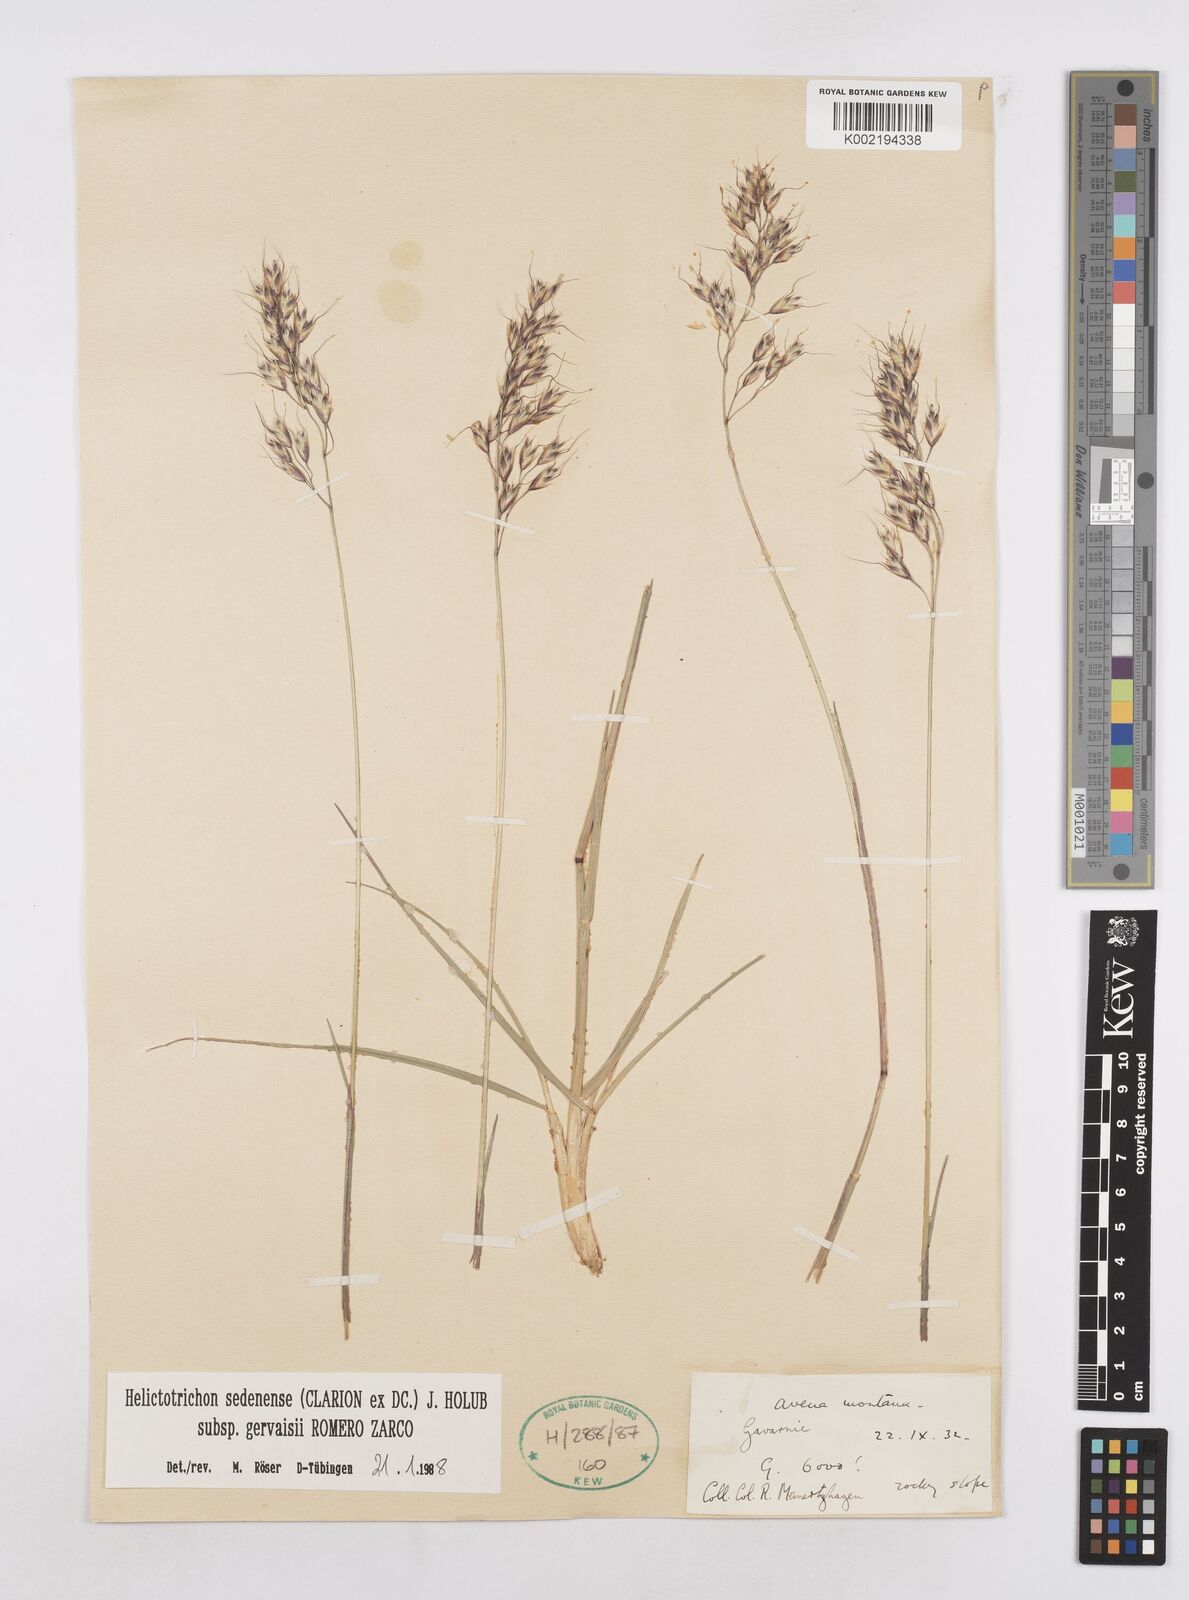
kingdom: Plantae
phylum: Tracheophyta
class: Liliopsida
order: Poales
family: Poaceae
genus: Helictotrichon
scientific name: Helictotrichon sedenense
